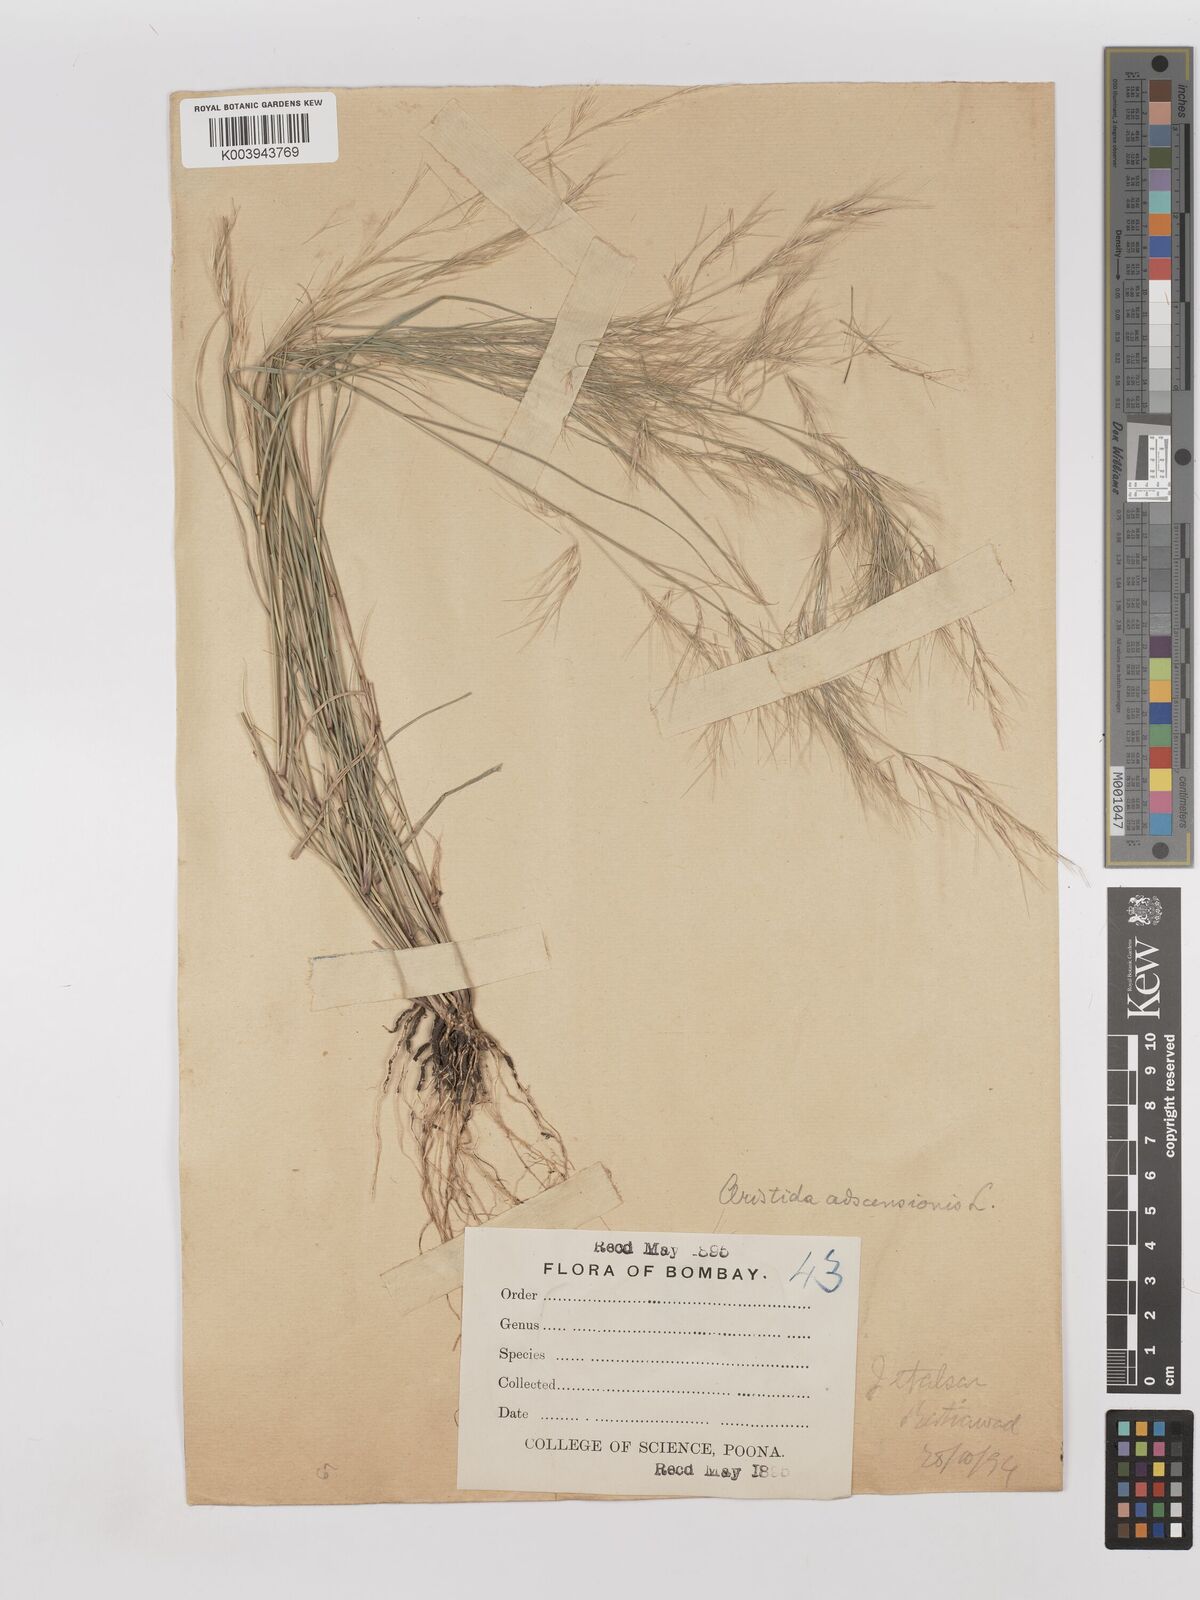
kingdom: Plantae
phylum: Tracheophyta
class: Liliopsida
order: Poales
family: Poaceae
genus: Aristida
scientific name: Aristida adscensionis
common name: Sixweeks threeawn
